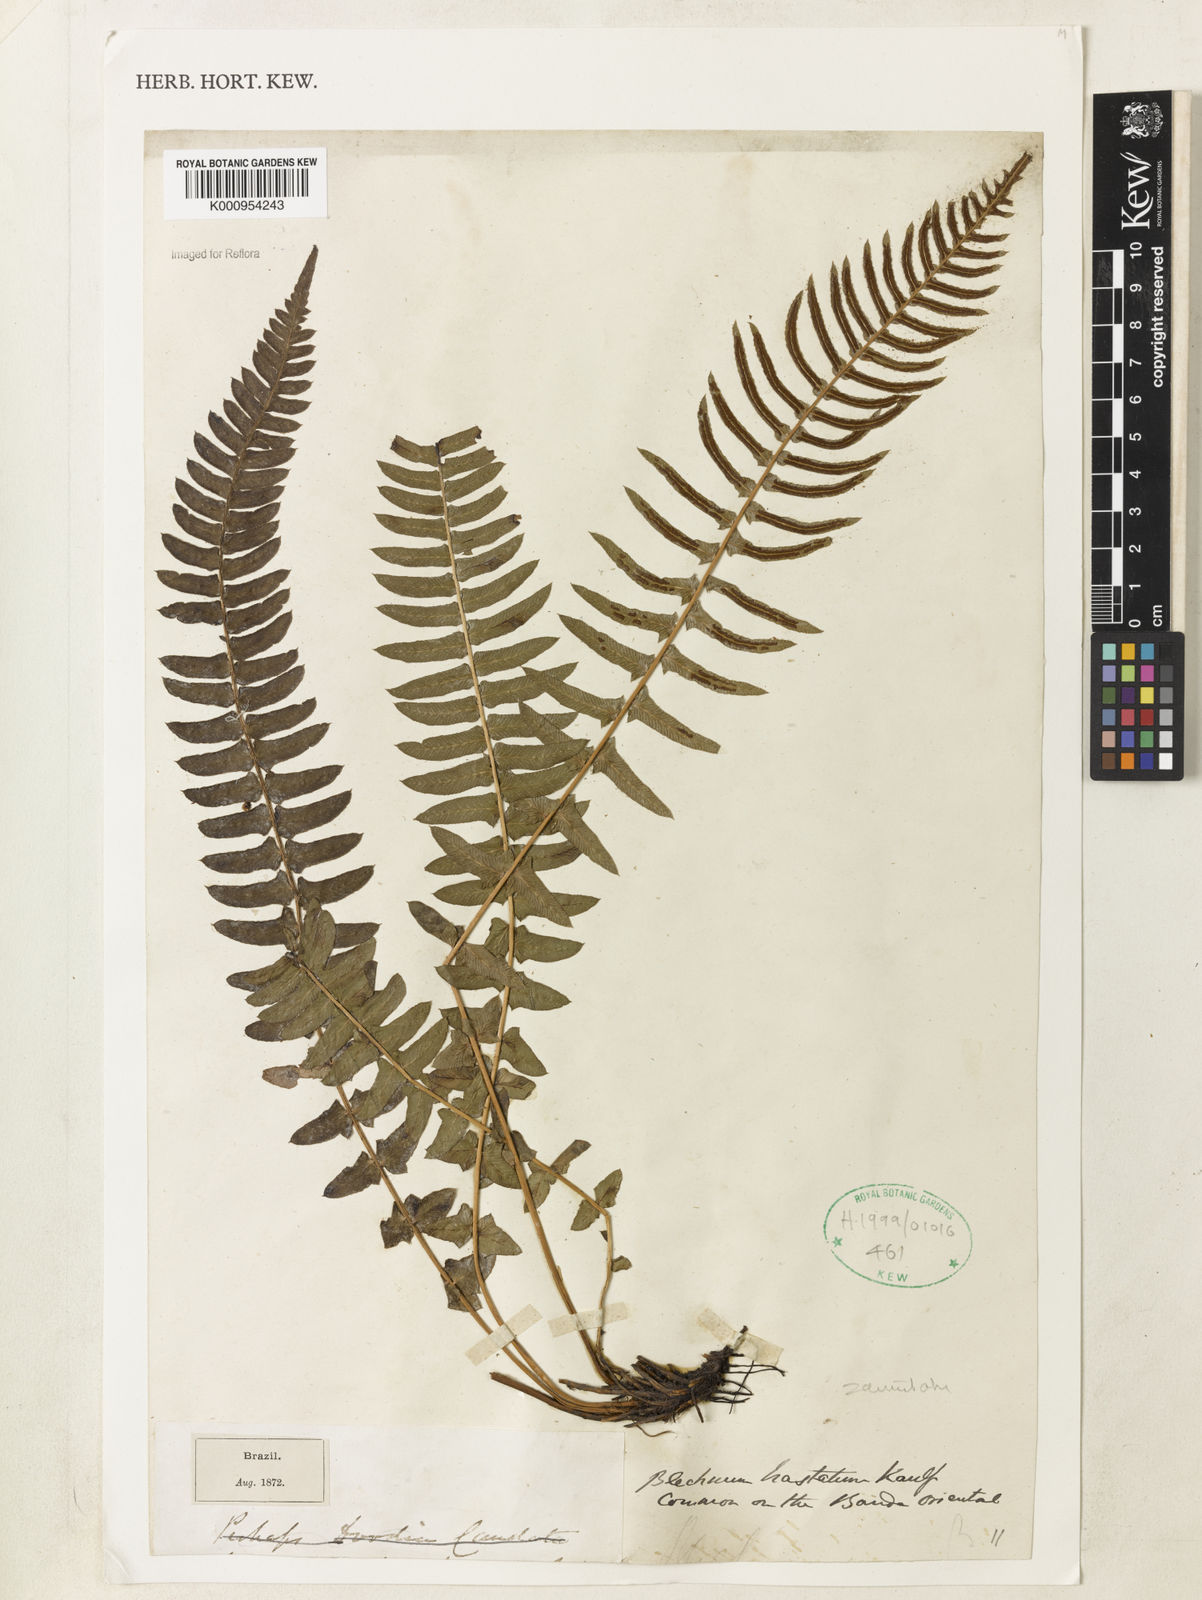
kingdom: Plantae
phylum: Tracheophyta
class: Polypodiopsida
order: Polypodiales
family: Blechnaceae
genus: Blechnum
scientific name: Blechnum australe
